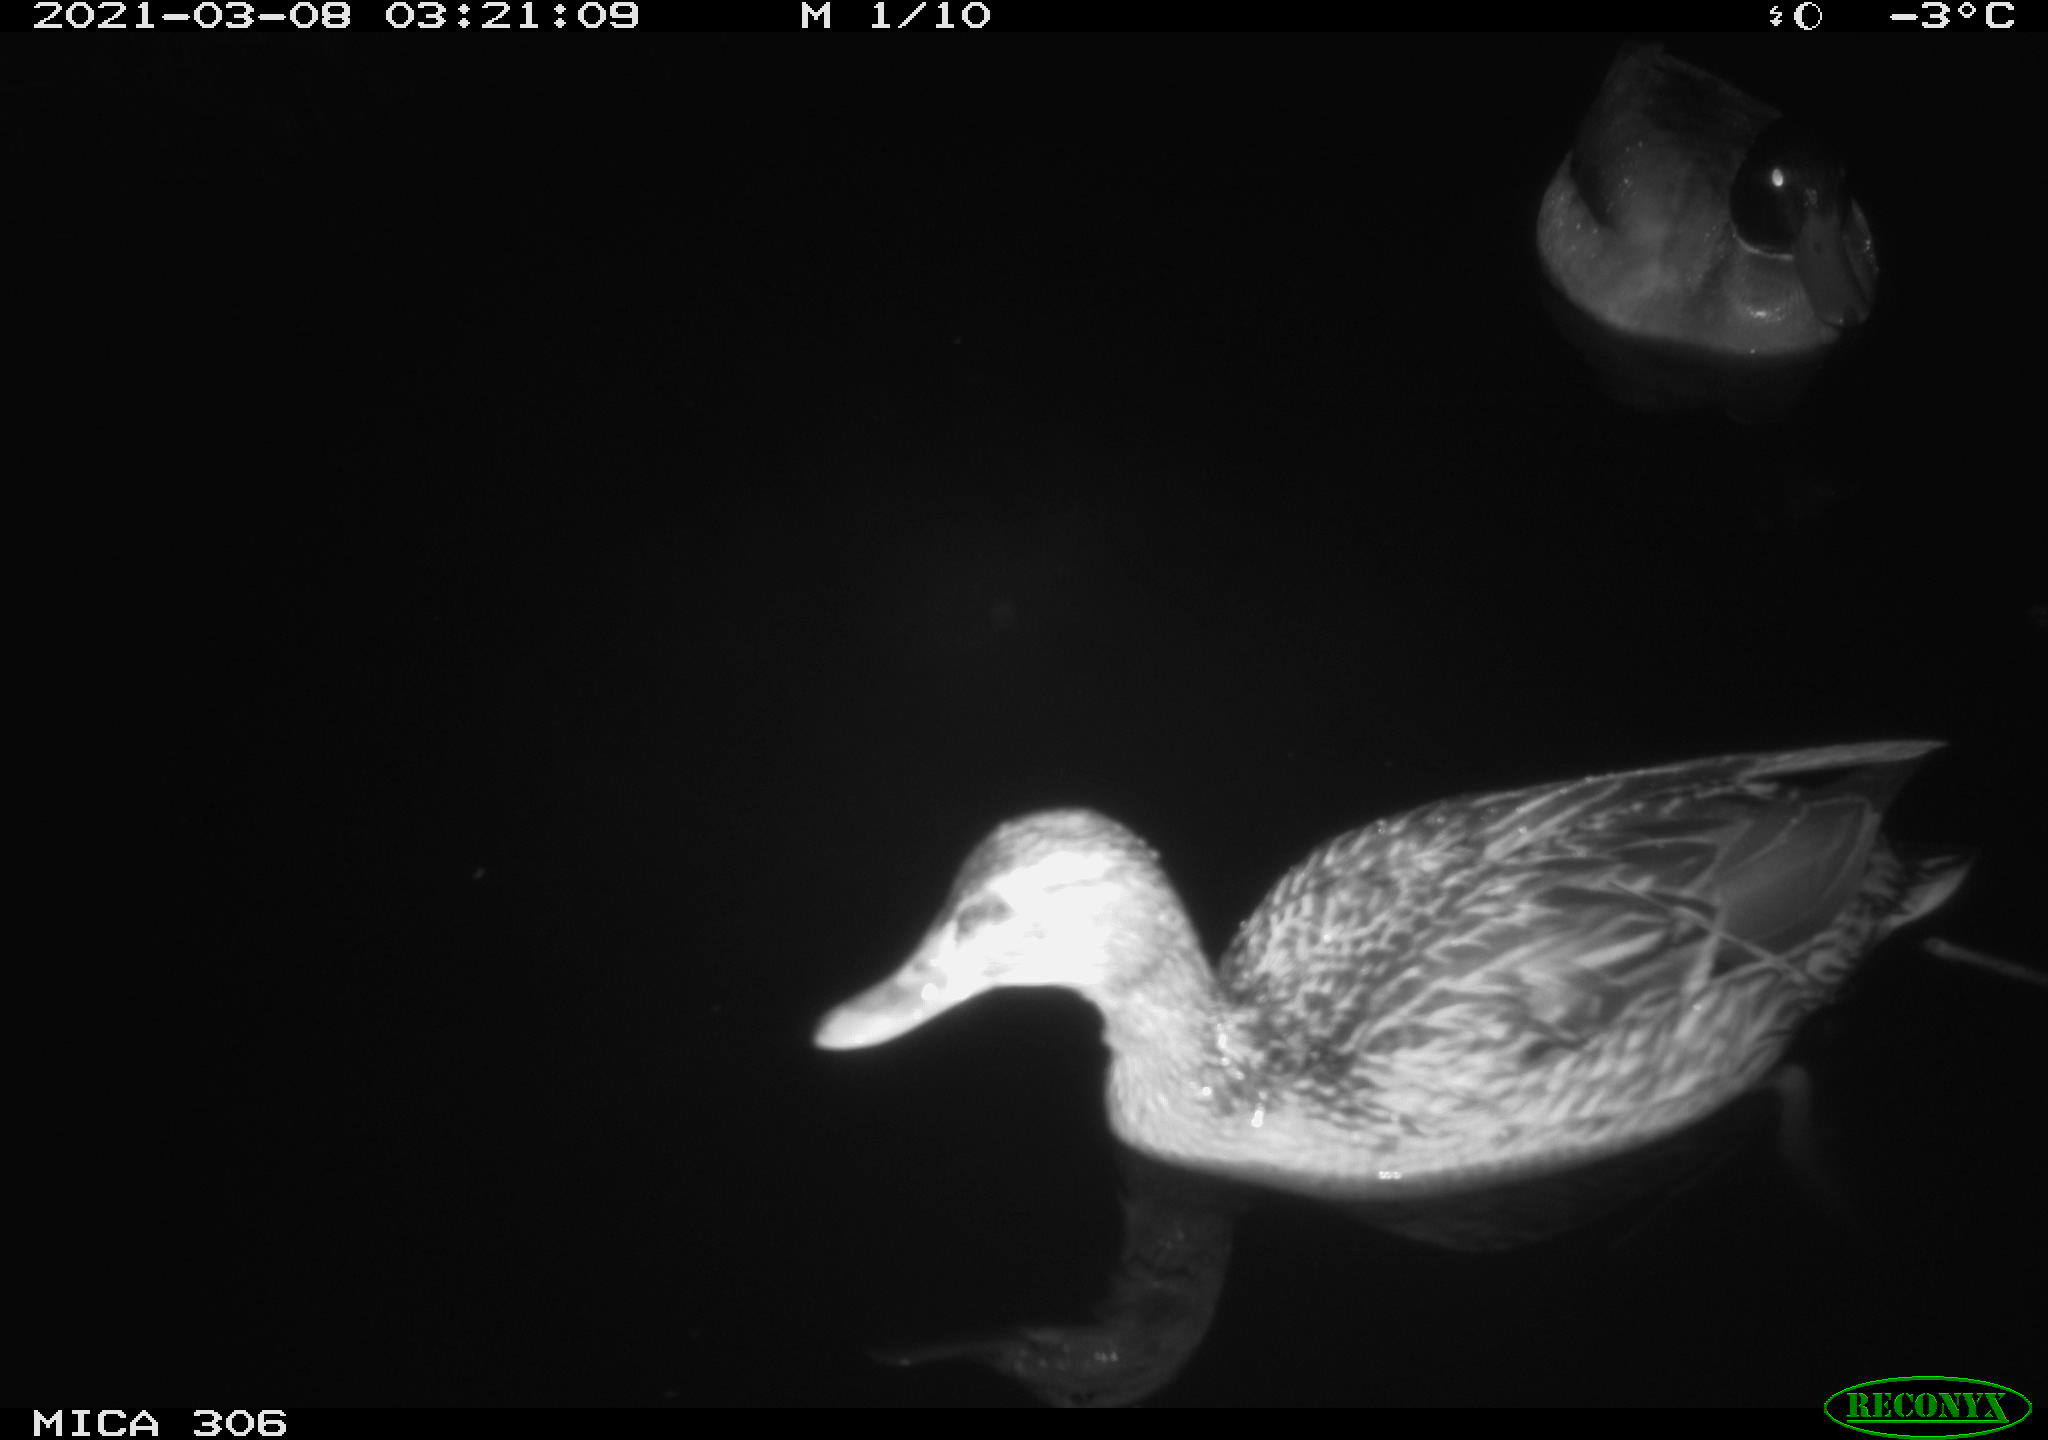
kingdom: Animalia
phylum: Chordata
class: Aves
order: Anseriformes
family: Anatidae
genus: Anas
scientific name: Anas platyrhynchos
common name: Mallard
